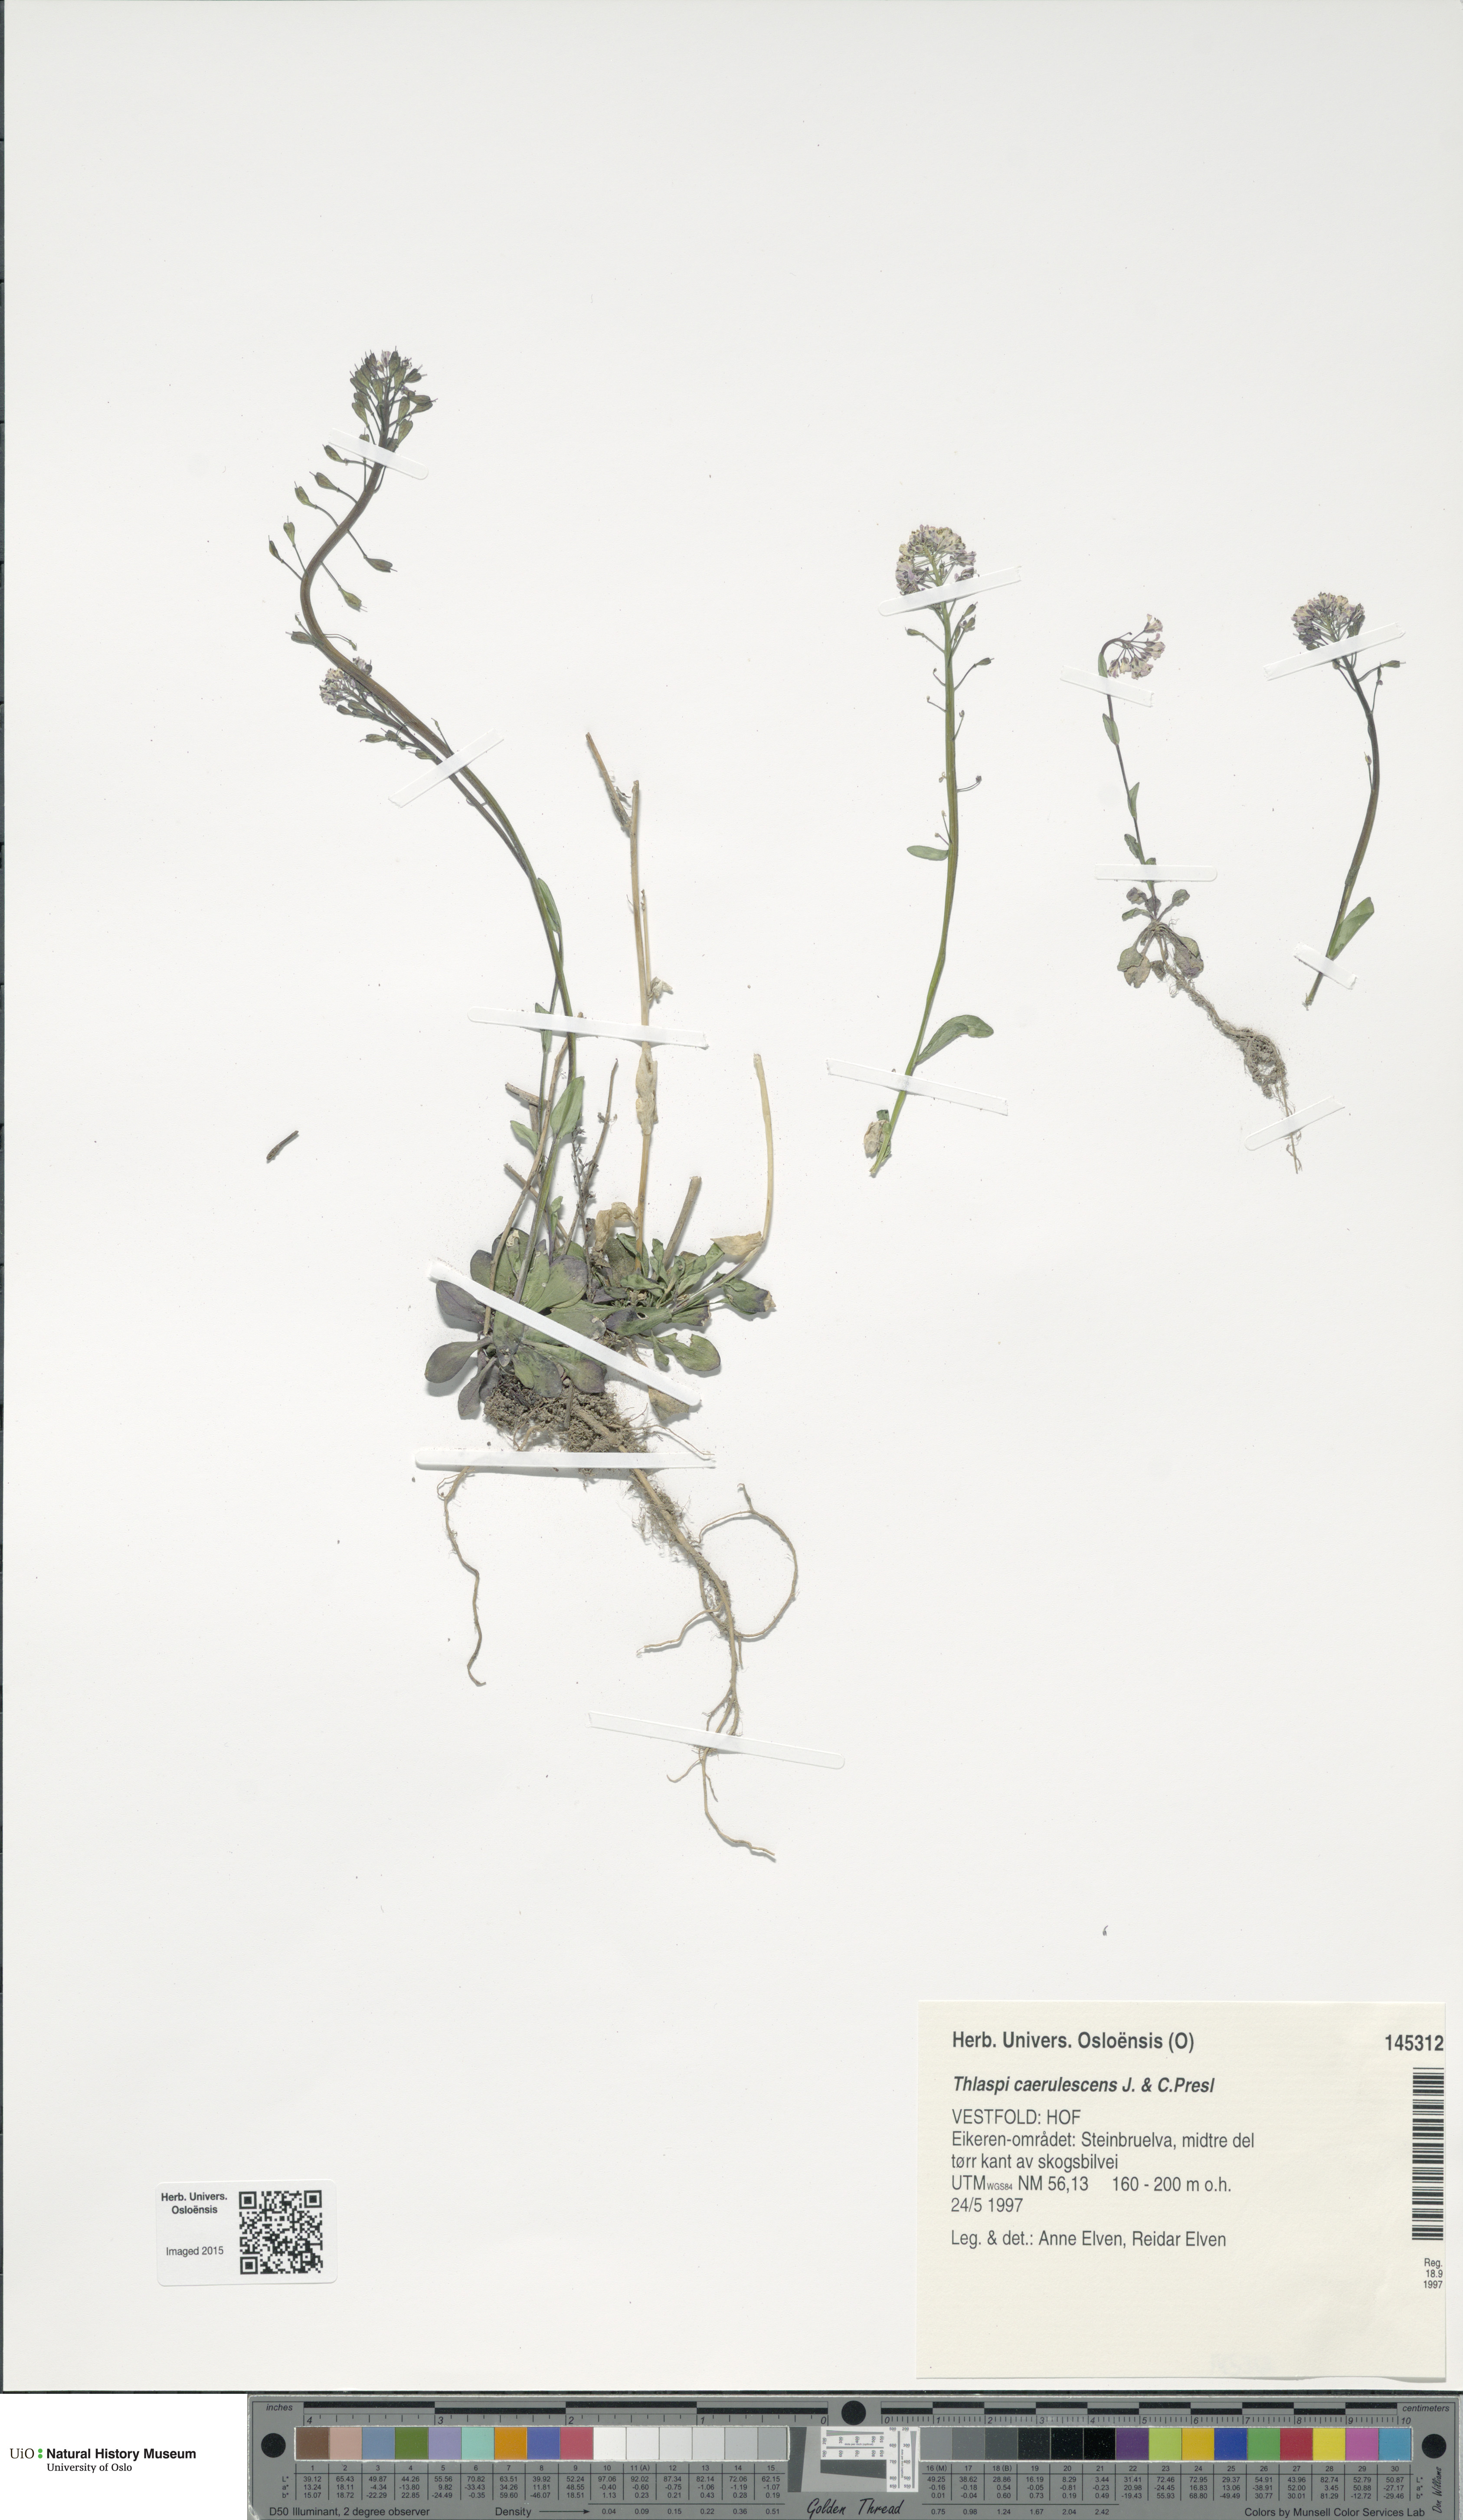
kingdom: Plantae
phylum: Tracheophyta
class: Magnoliopsida
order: Brassicales
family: Brassicaceae
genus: Noccaea
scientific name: Noccaea caerulescens
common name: Alpine pennycress
